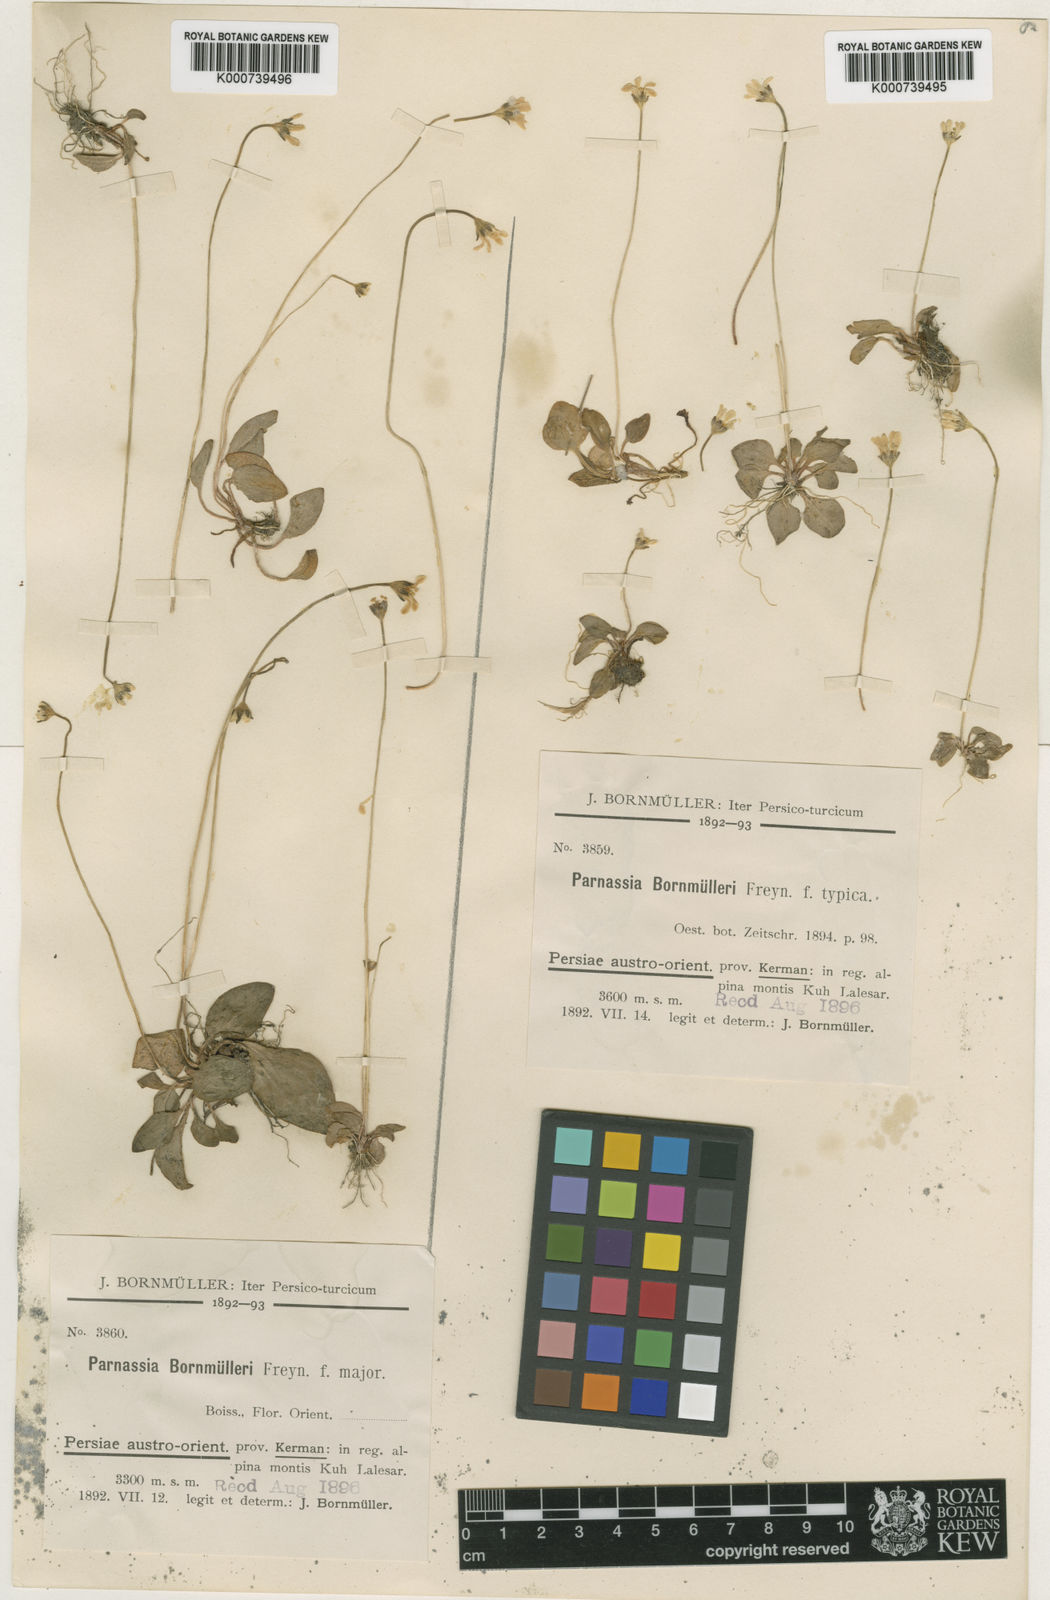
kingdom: Plantae
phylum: Tracheophyta
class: Magnoliopsida
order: Celastrales
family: Parnassiaceae
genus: Parnassia
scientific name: Parnassia cabulica
